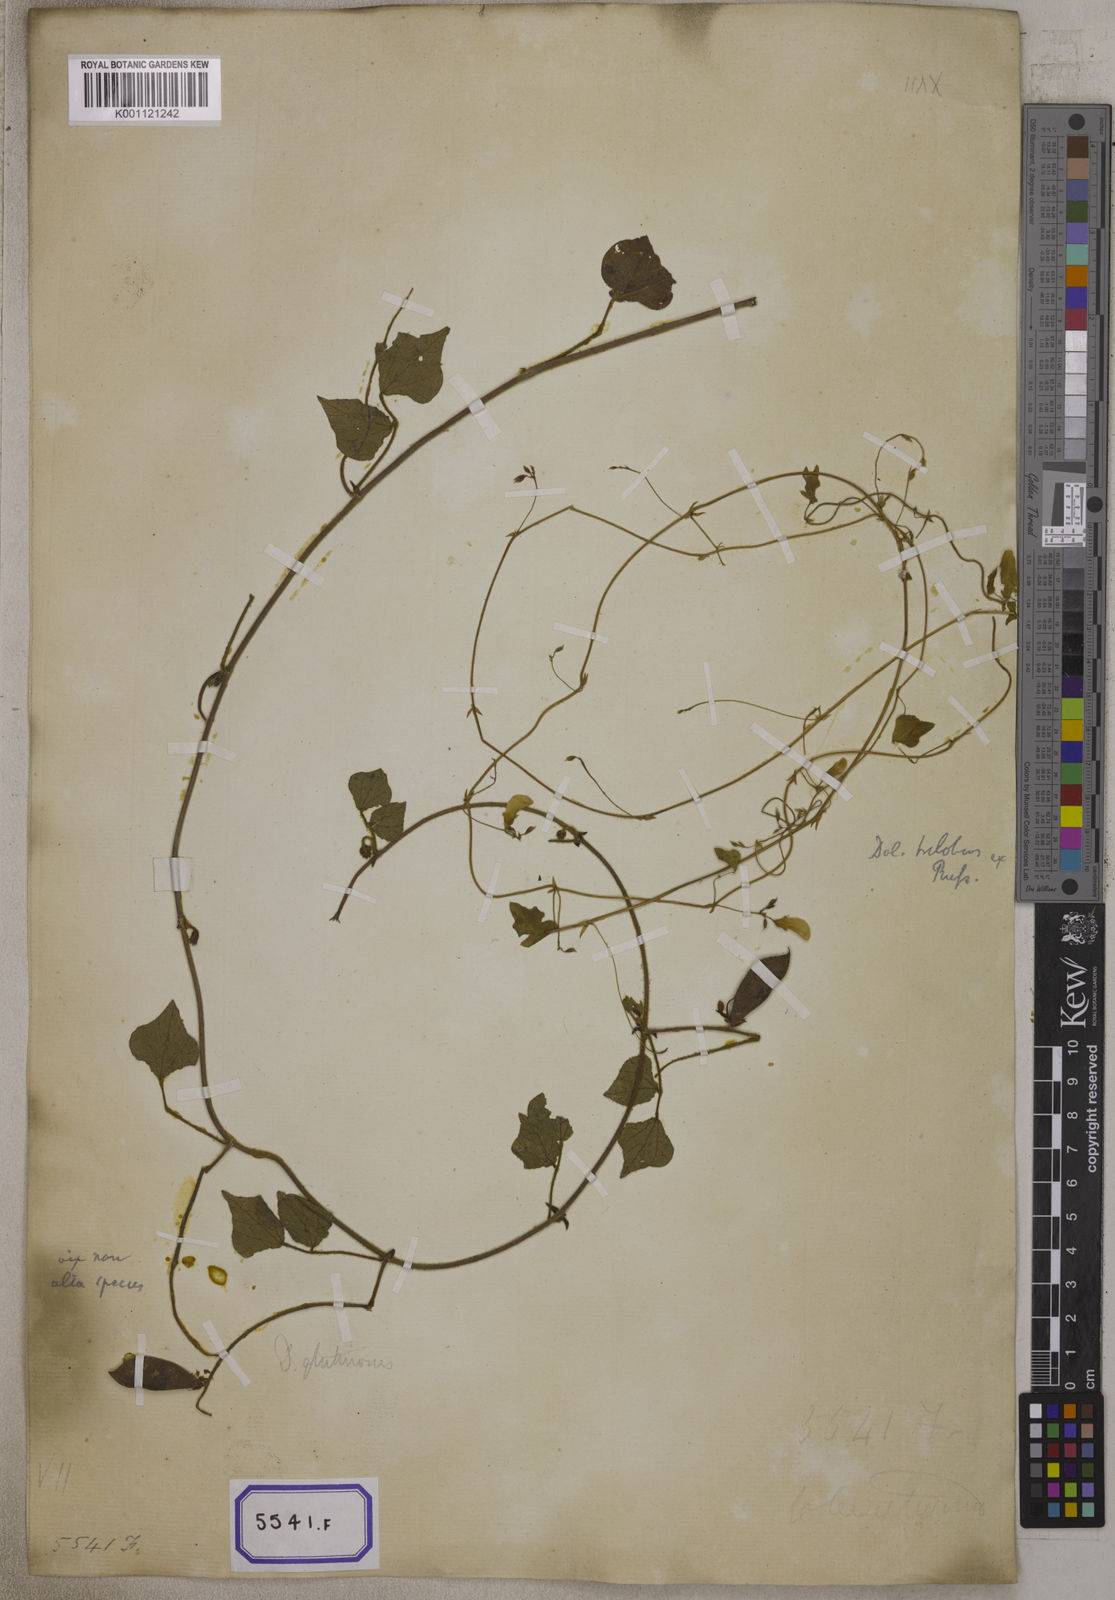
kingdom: Plantae
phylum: Tracheophyta
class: Magnoliopsida
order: Fabales
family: Fabaceae
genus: Dolichos
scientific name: Dolichos
